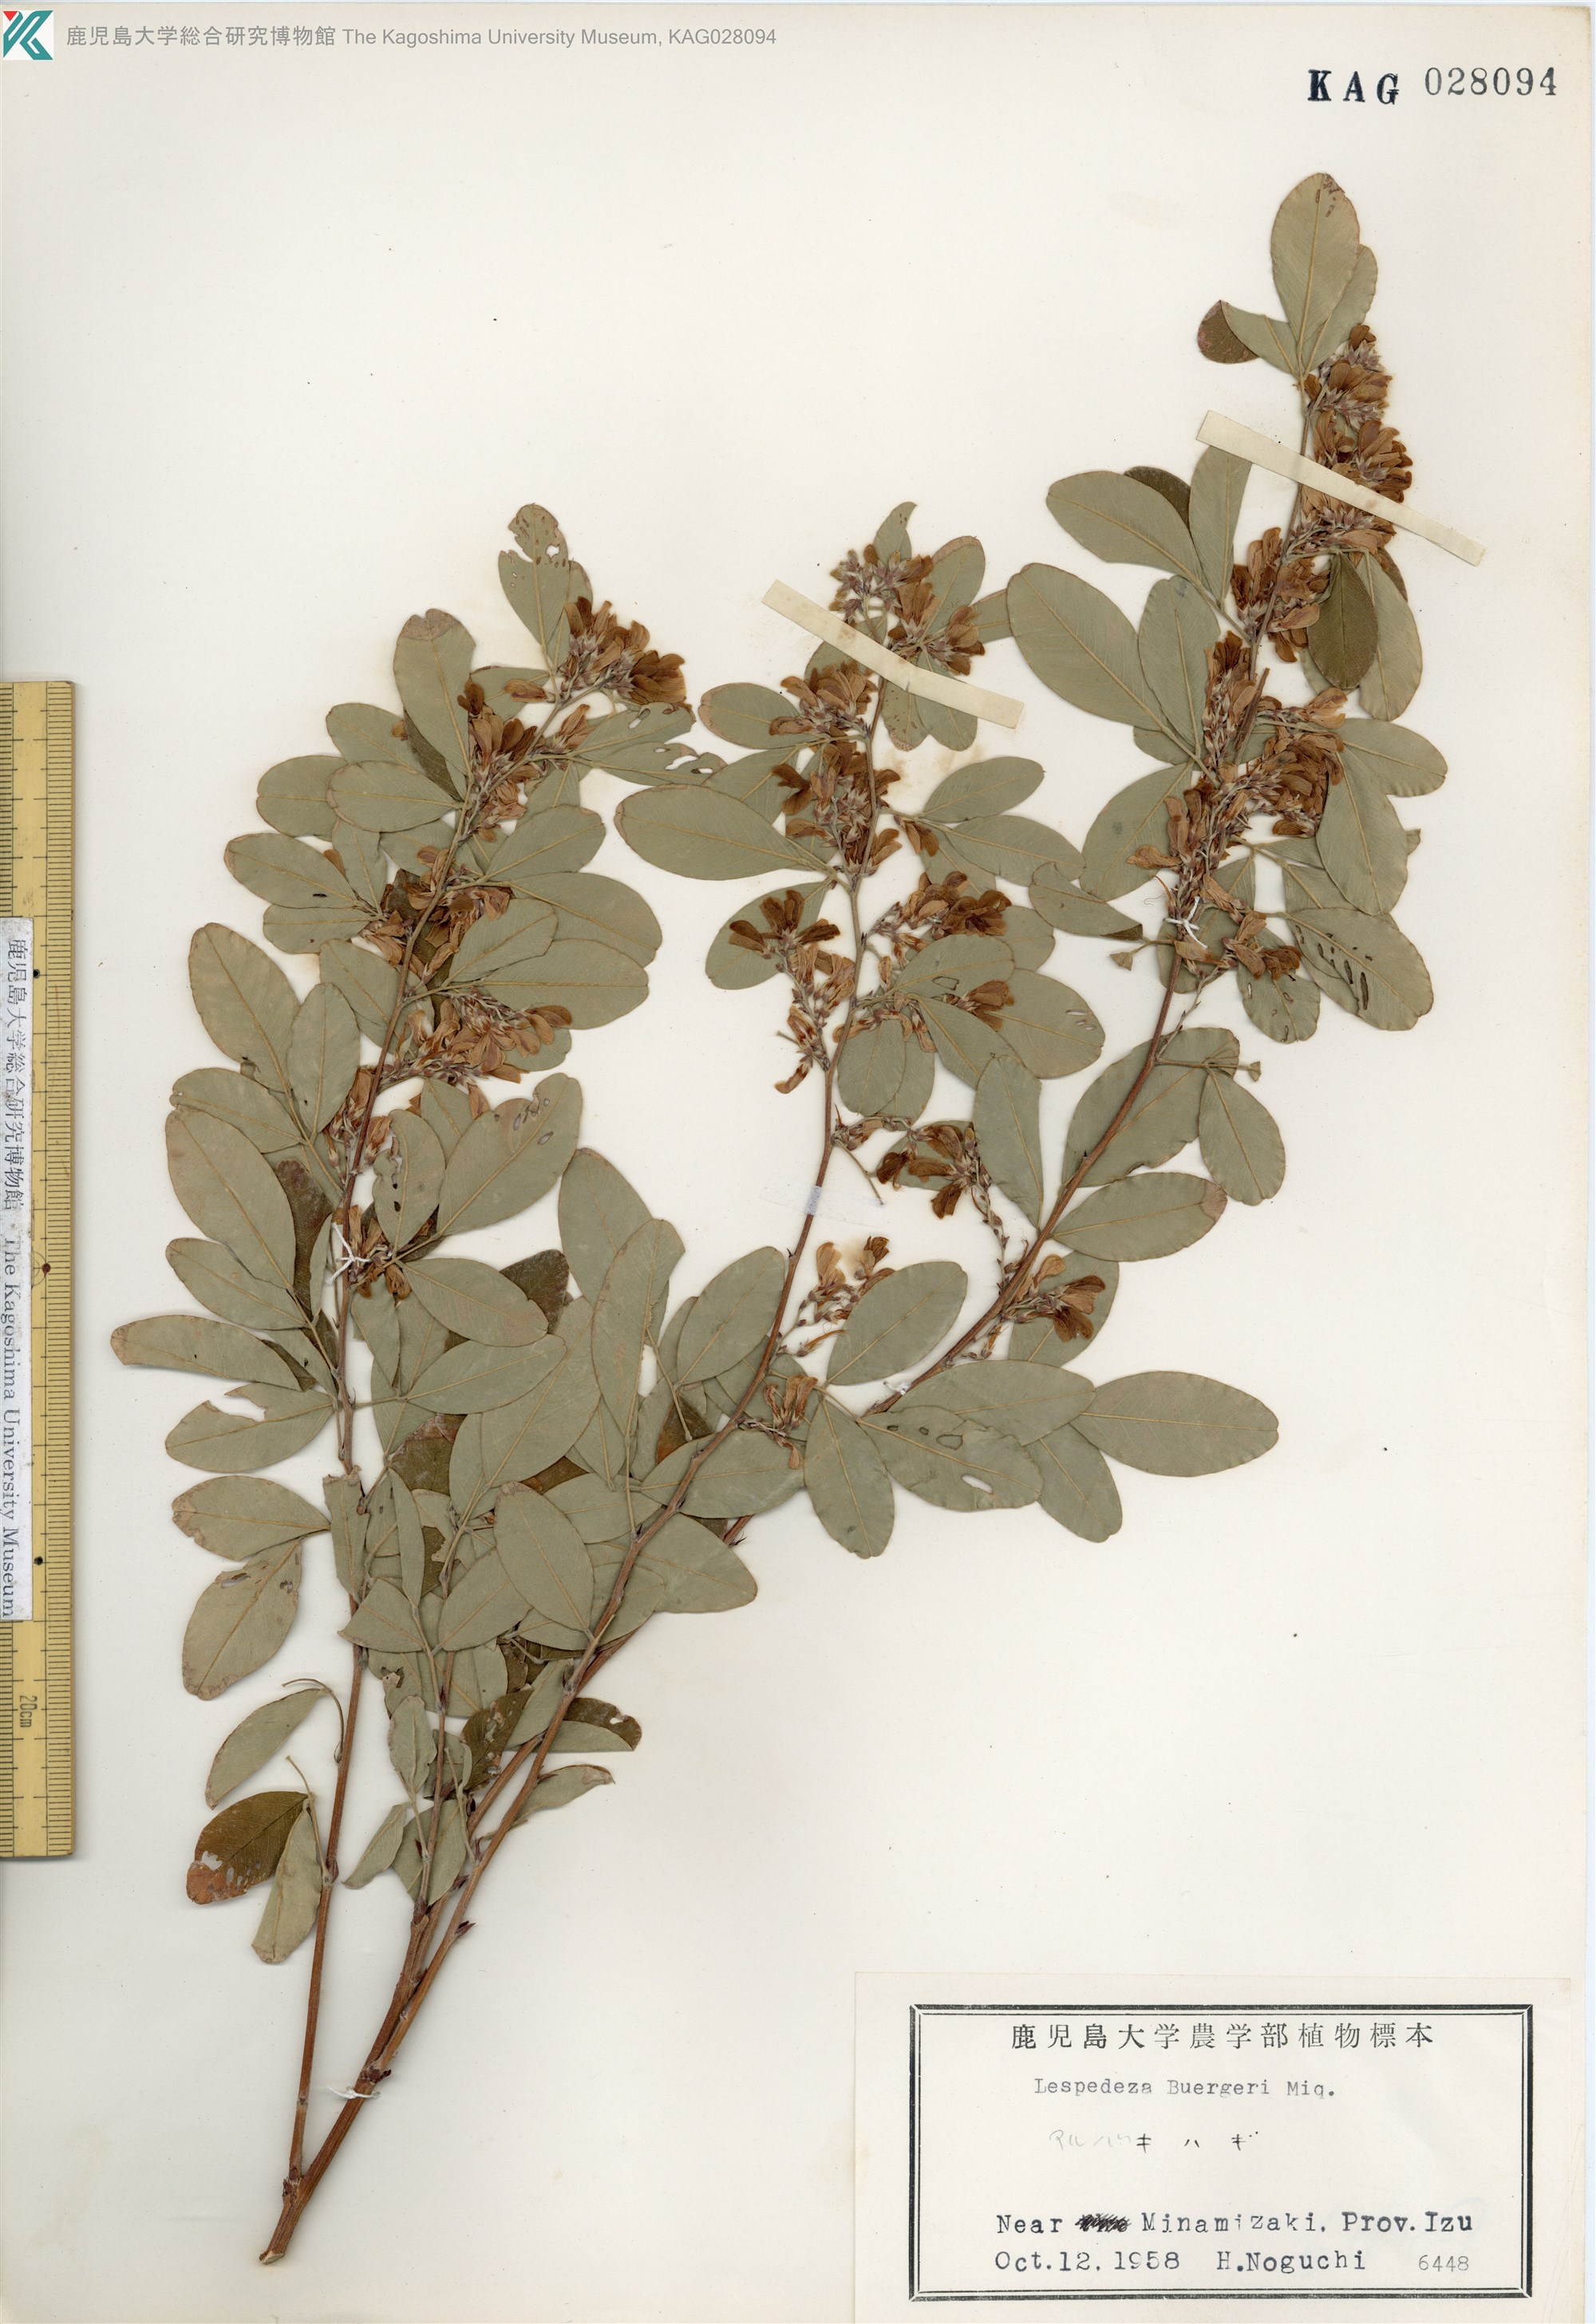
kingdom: Plantae
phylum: Tracheophyta
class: Magnoliopsida
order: Fabales
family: Fabaceae
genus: Lespedeza
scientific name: Lespedeza buergeri
